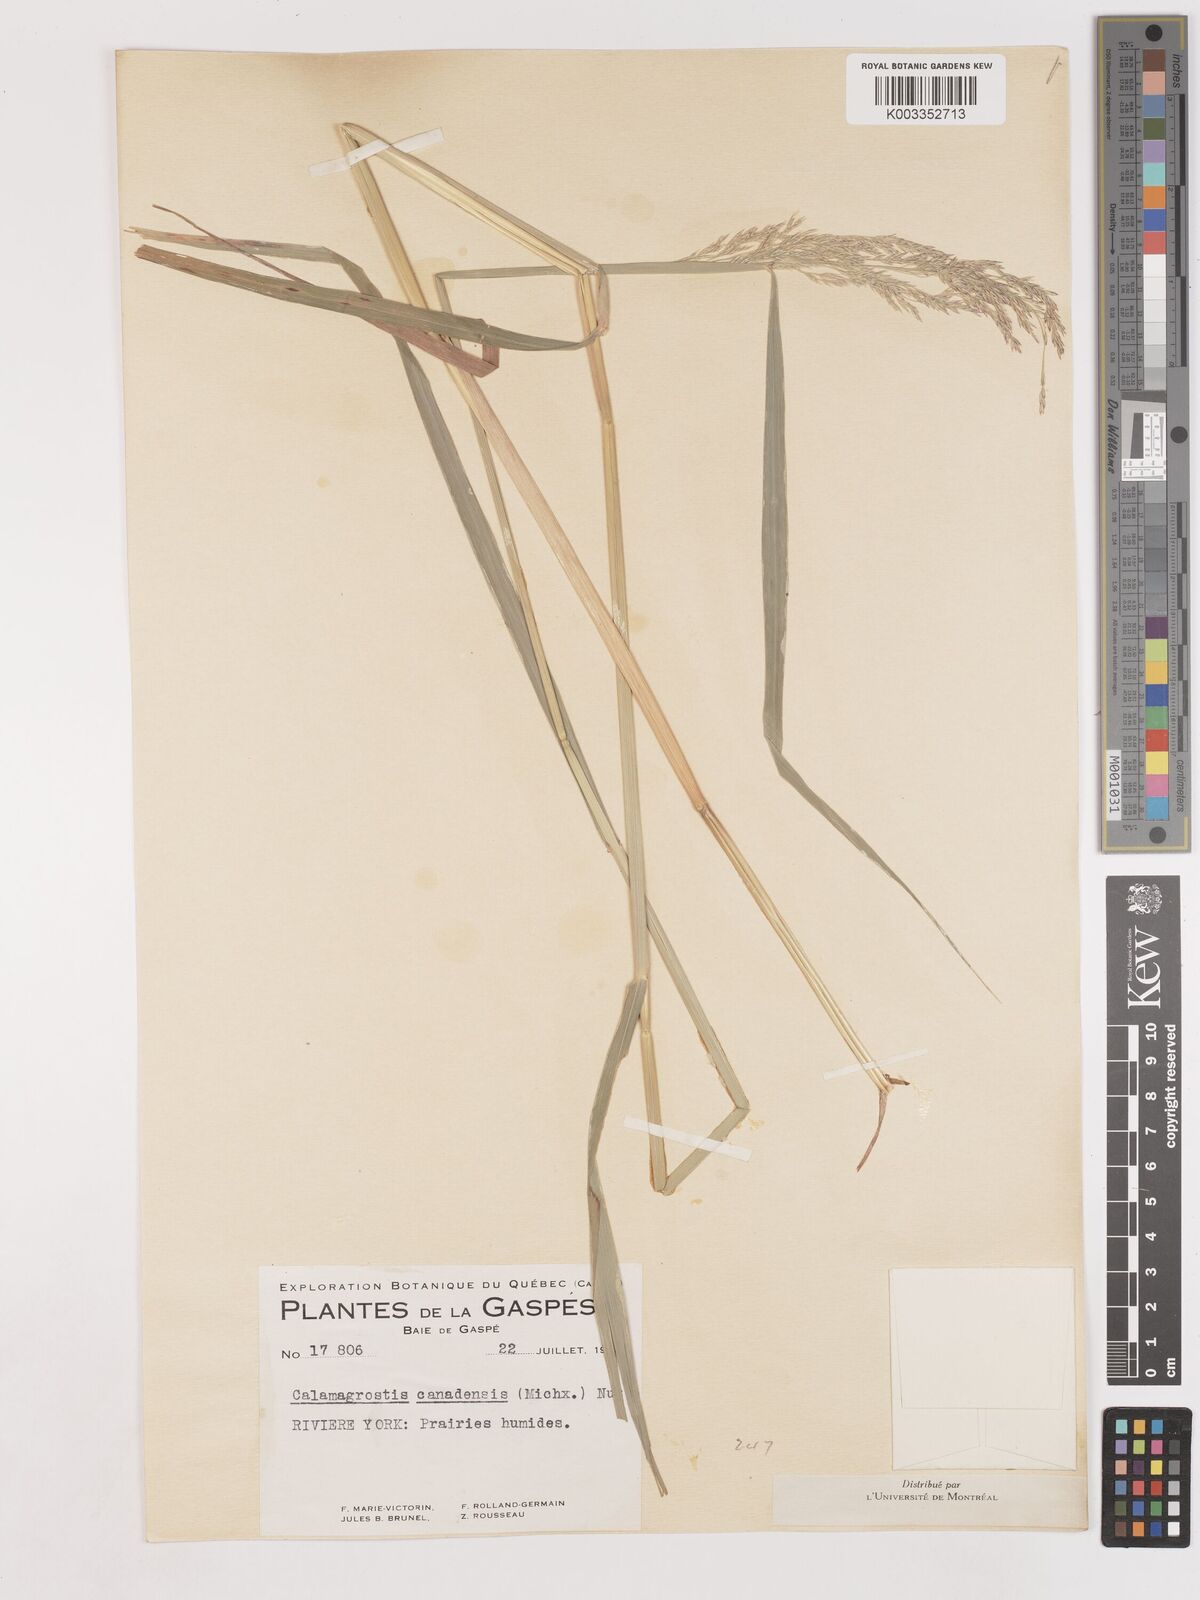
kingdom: Plantae
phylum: Tracheophyta
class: Liliopsida
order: Poales
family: Poaceae
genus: Calamagrostis
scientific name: Calamagrostis canadensis
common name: Canada bluejoint
